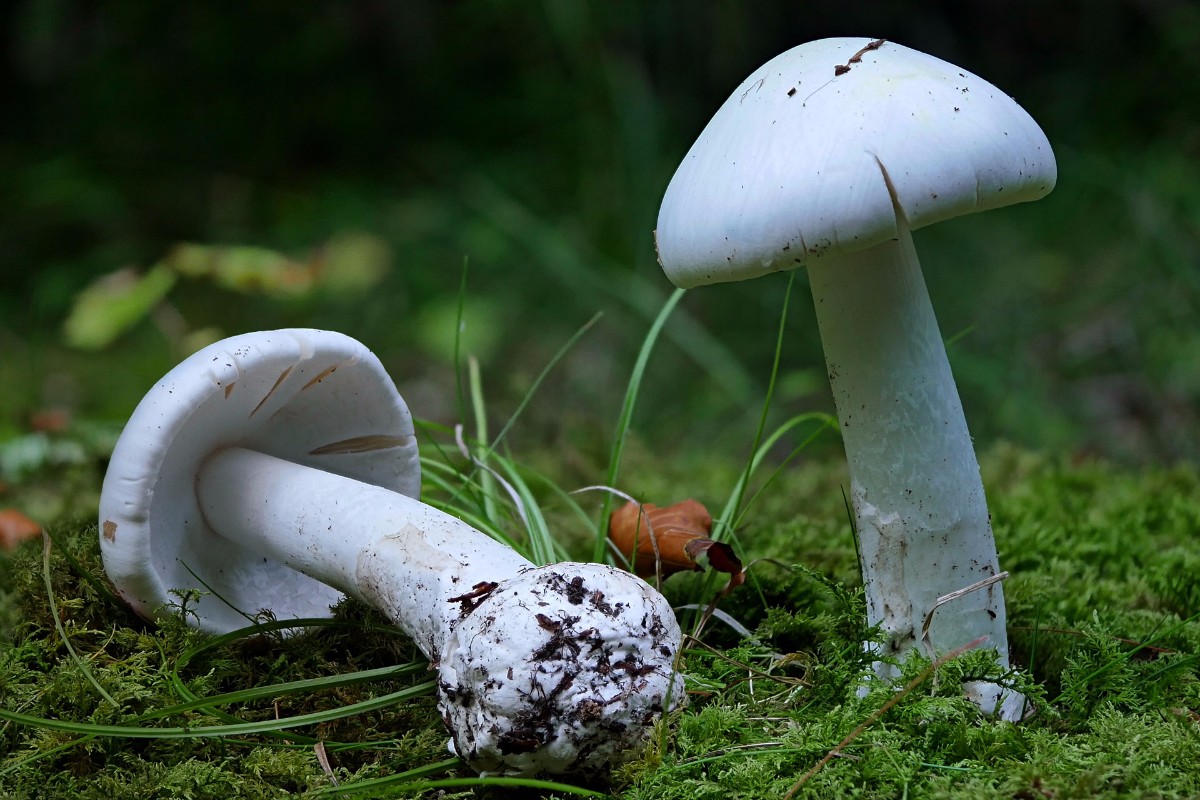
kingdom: Fungi
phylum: Basidiomycota
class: Agaricomycetes
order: Agaricales
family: Amanitaceae
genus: Amanita
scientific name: Amanita phalloides
